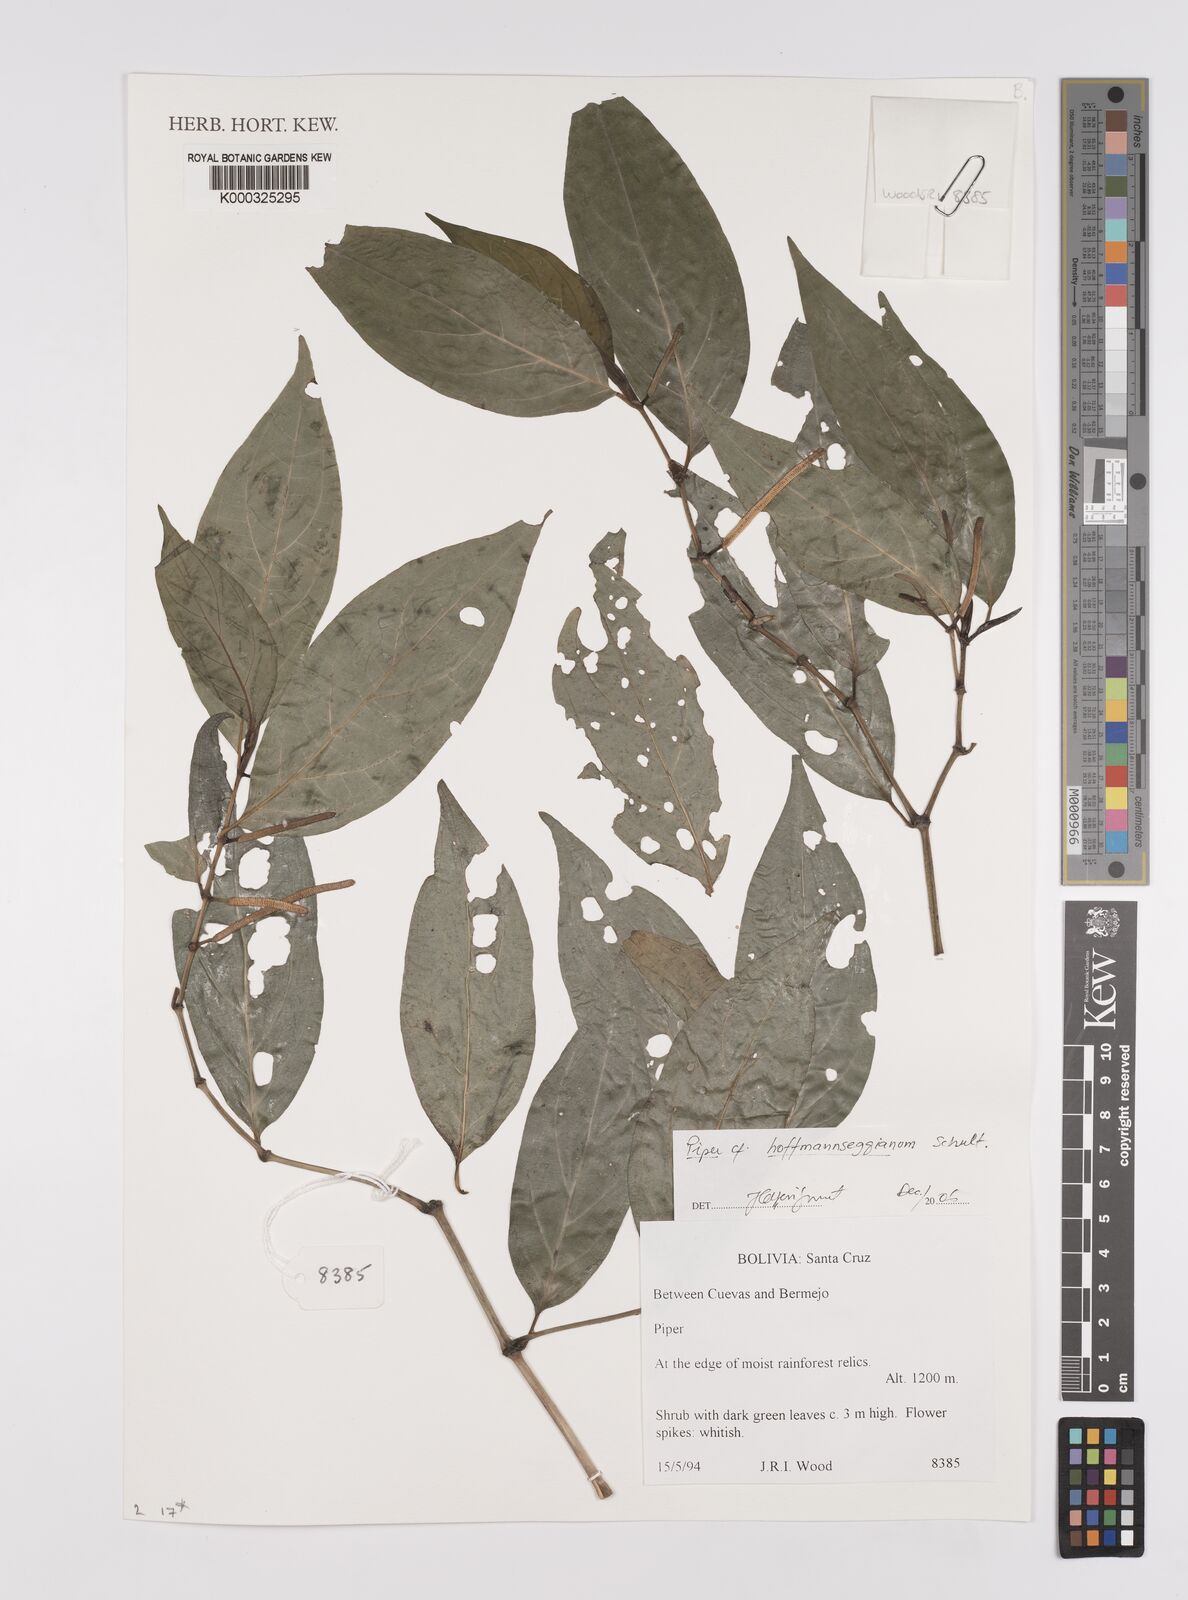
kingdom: Plantae
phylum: Tracheophyta
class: Magnoliopsida
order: Piperales
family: Piperaceae
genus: Piper
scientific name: Piper hoffmannseggianum
